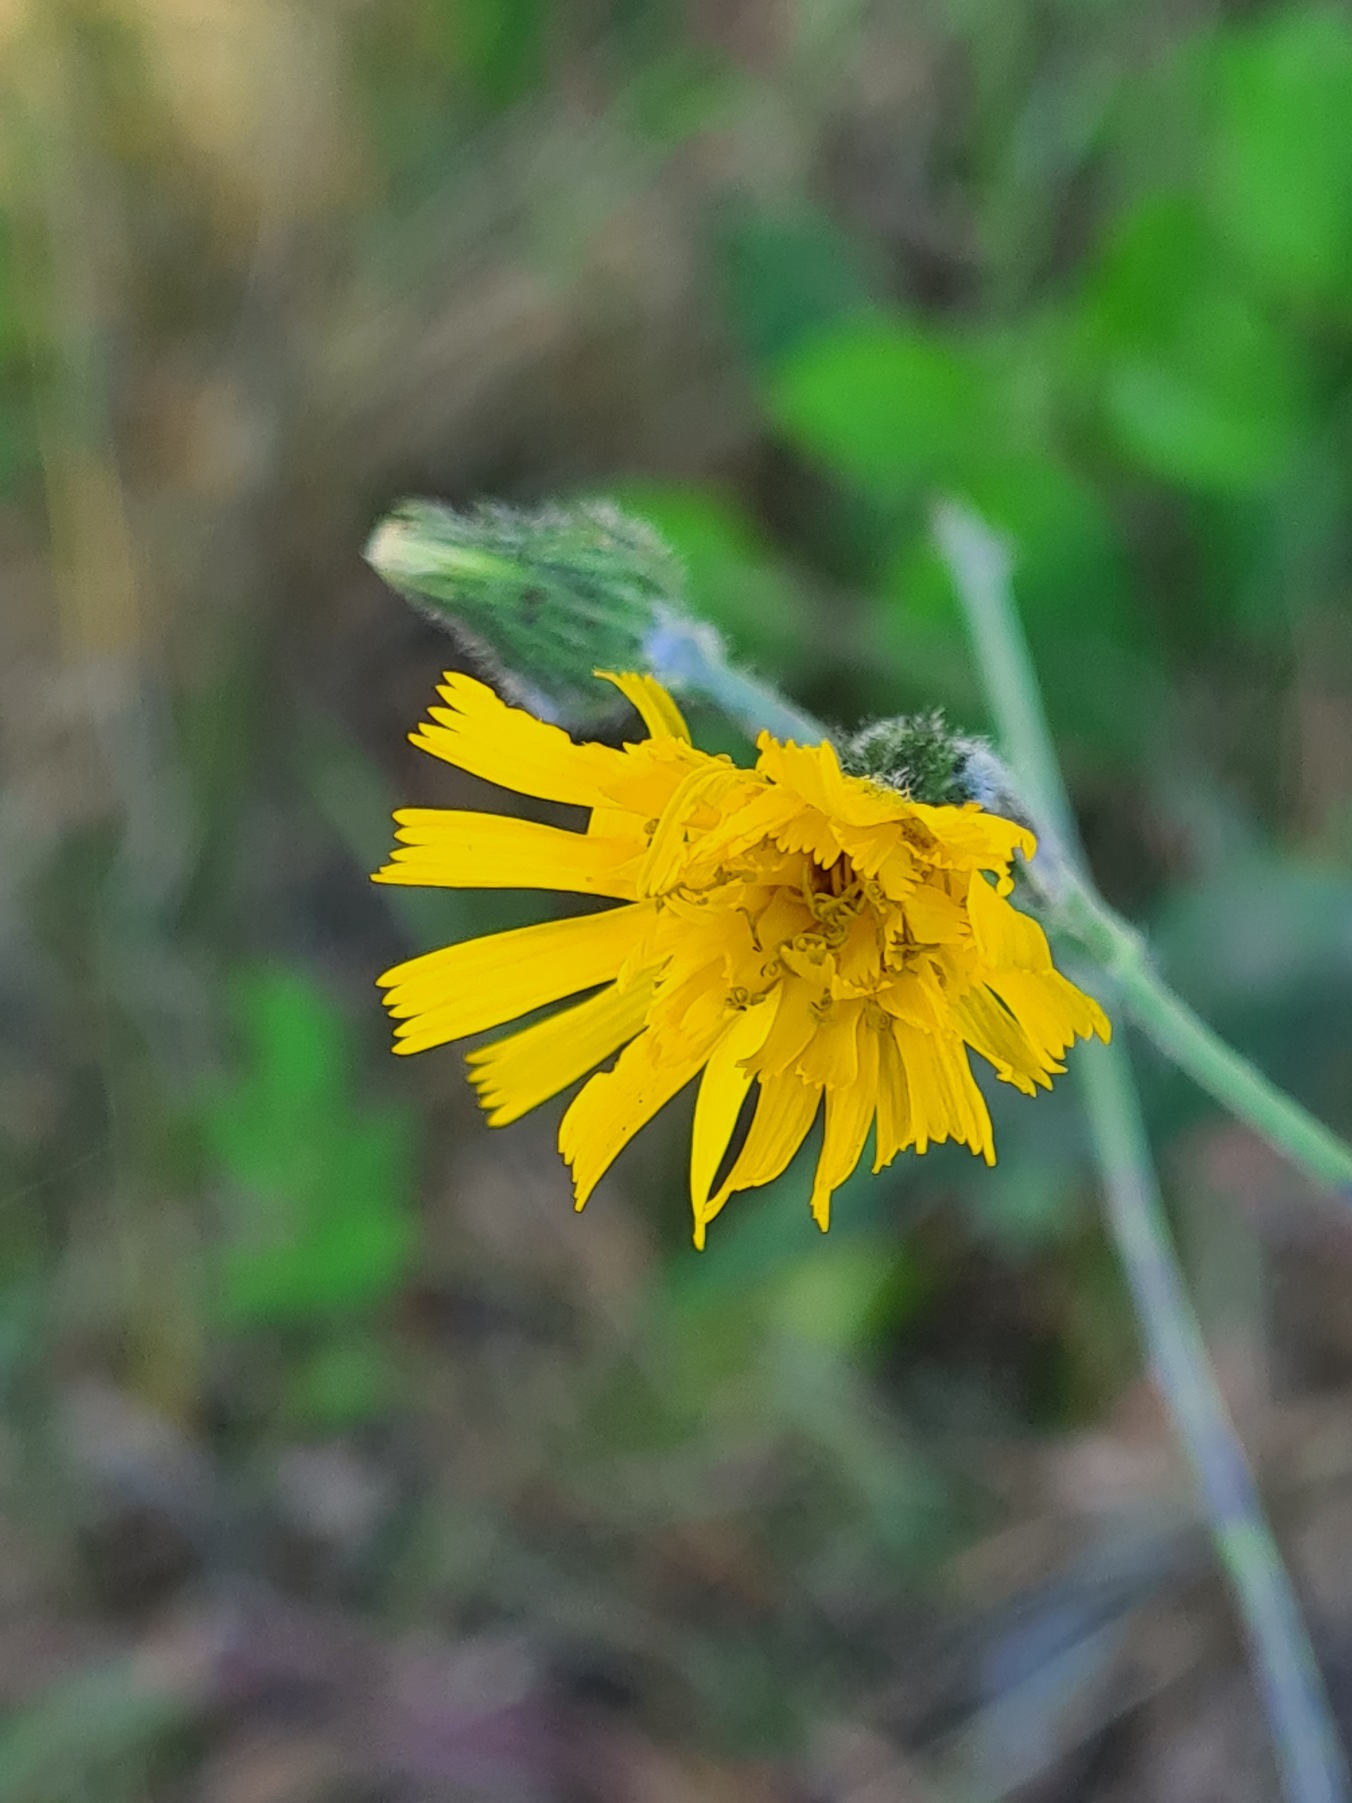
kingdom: Plantae
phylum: Tracheophyta
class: Magnoliopsida
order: Asterales
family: Asteraceae
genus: Hieracium
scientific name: Hieracium subramosum
